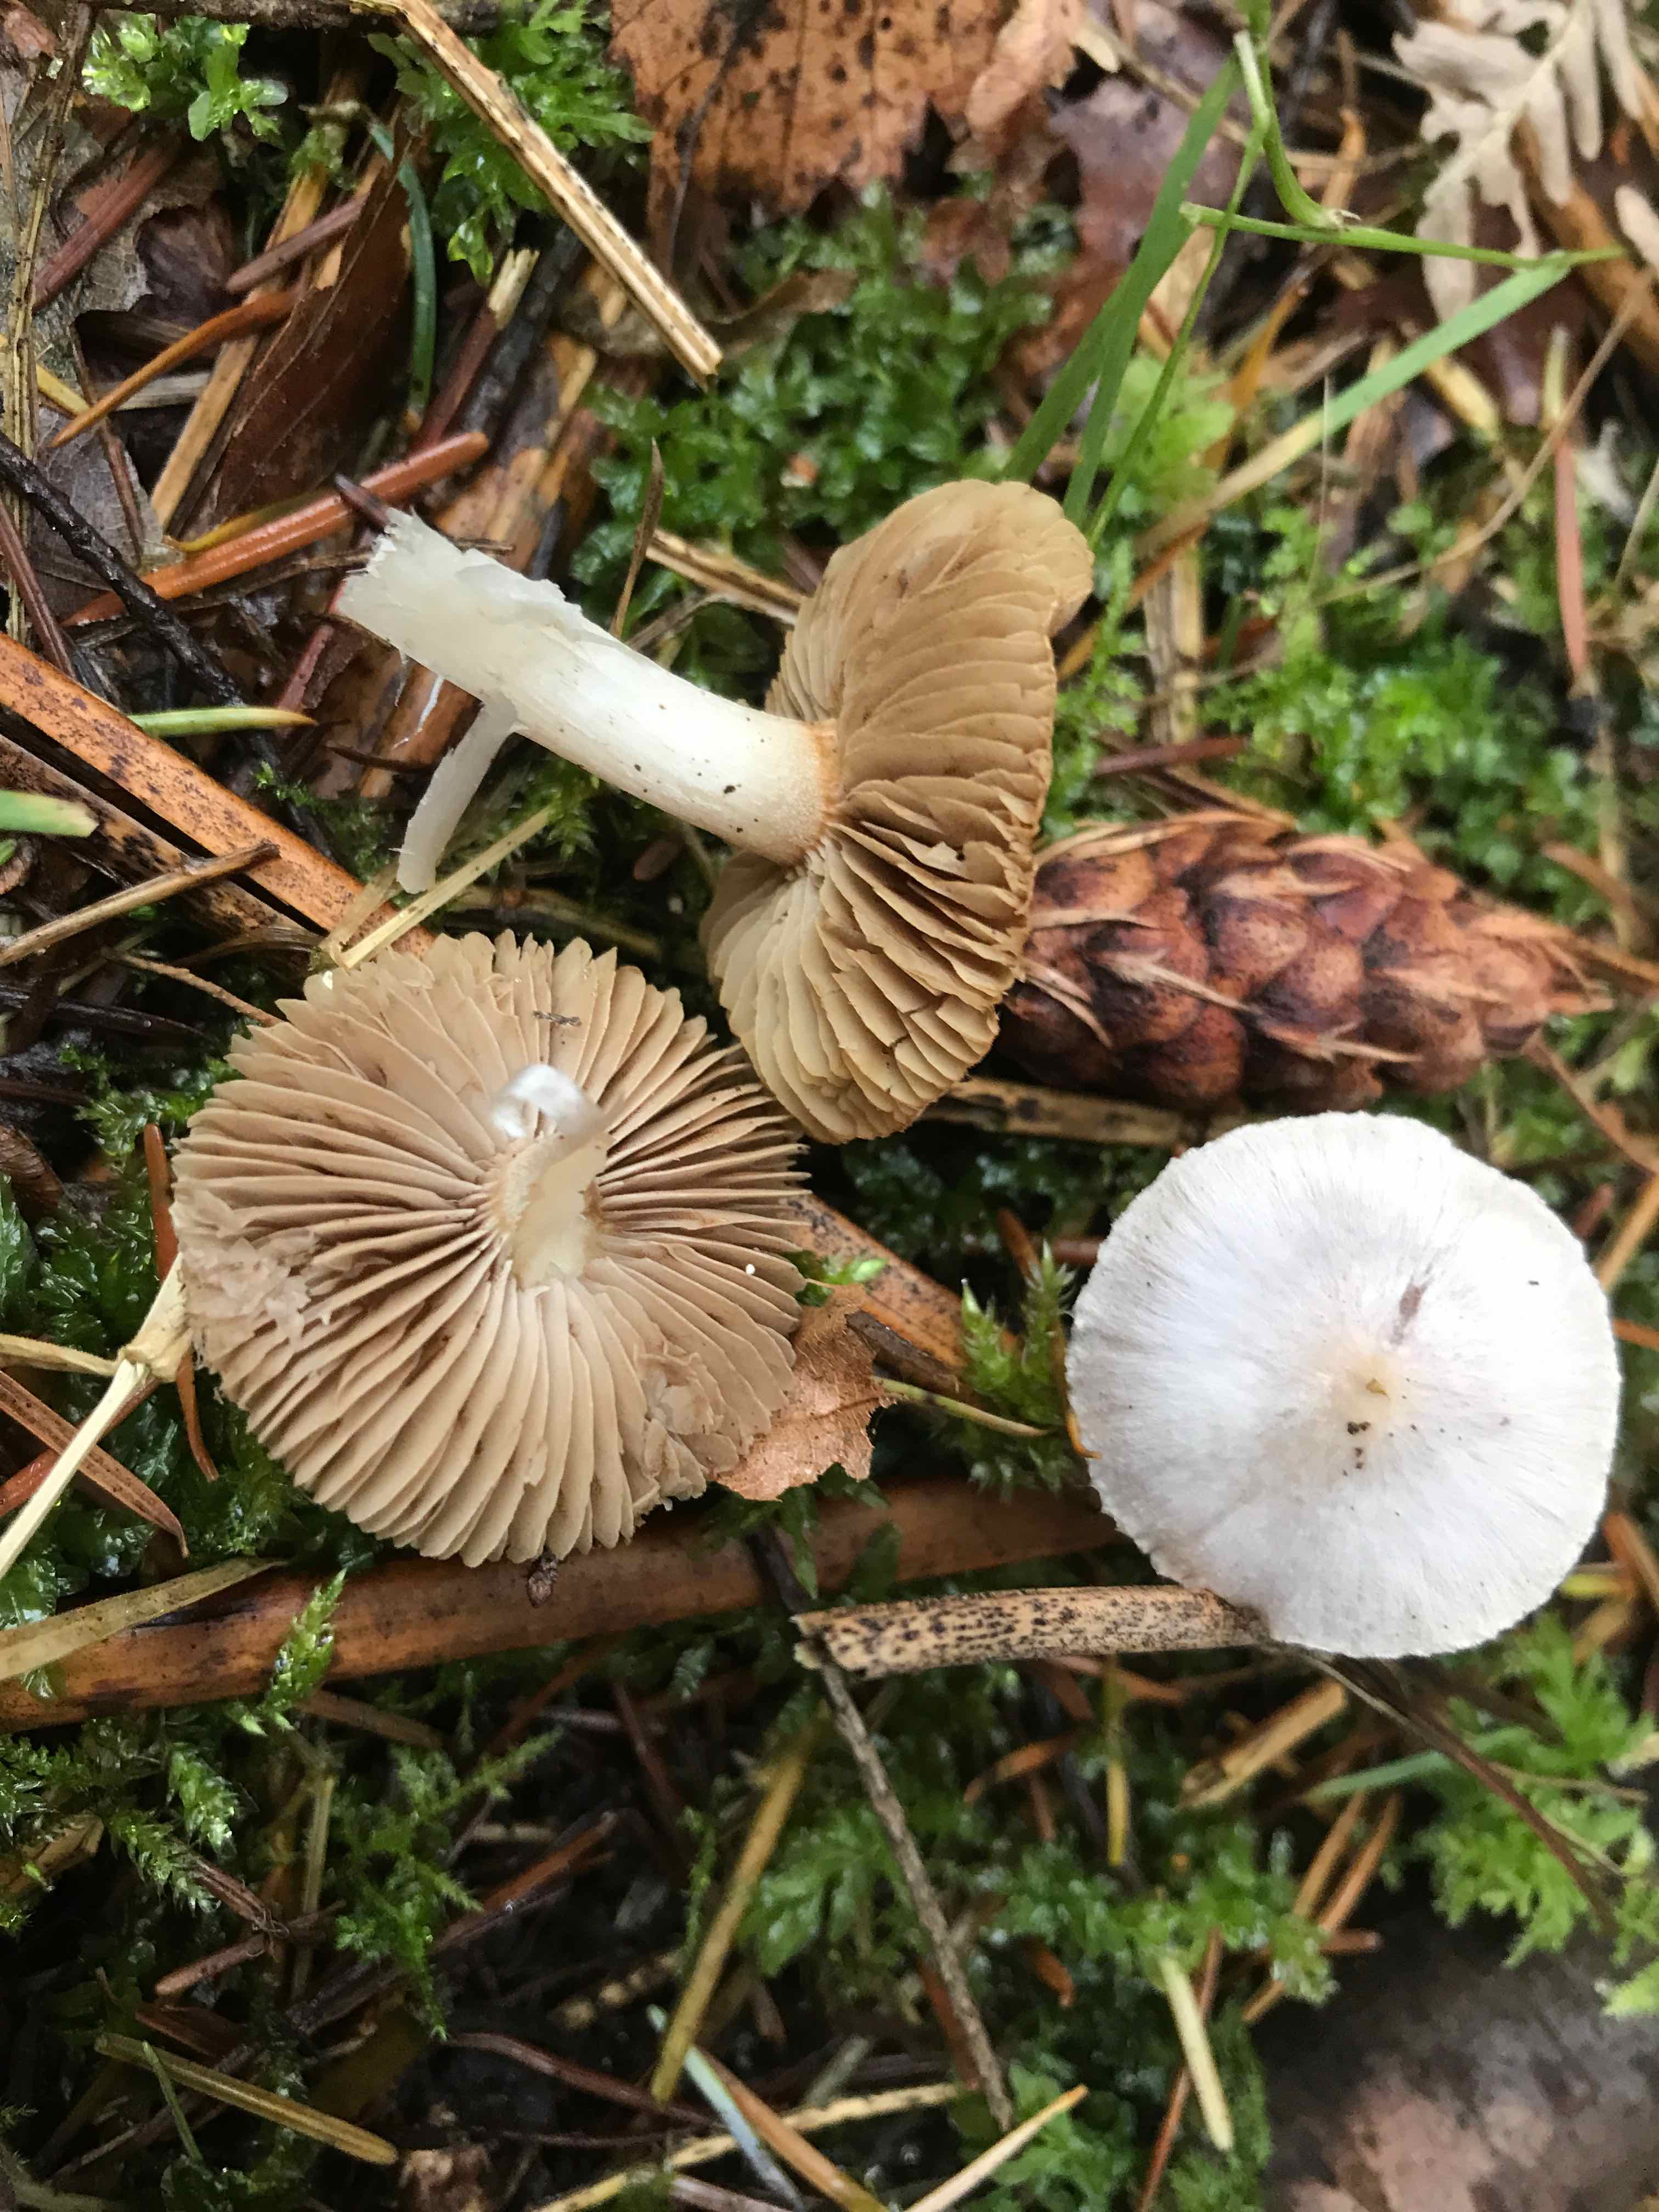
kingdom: Fungi
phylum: Basidiomycota
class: Agaricomycetes
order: Agaricales
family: Inocybaceae
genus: Inocybe
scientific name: Inocybe
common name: almindelig trævlhat
